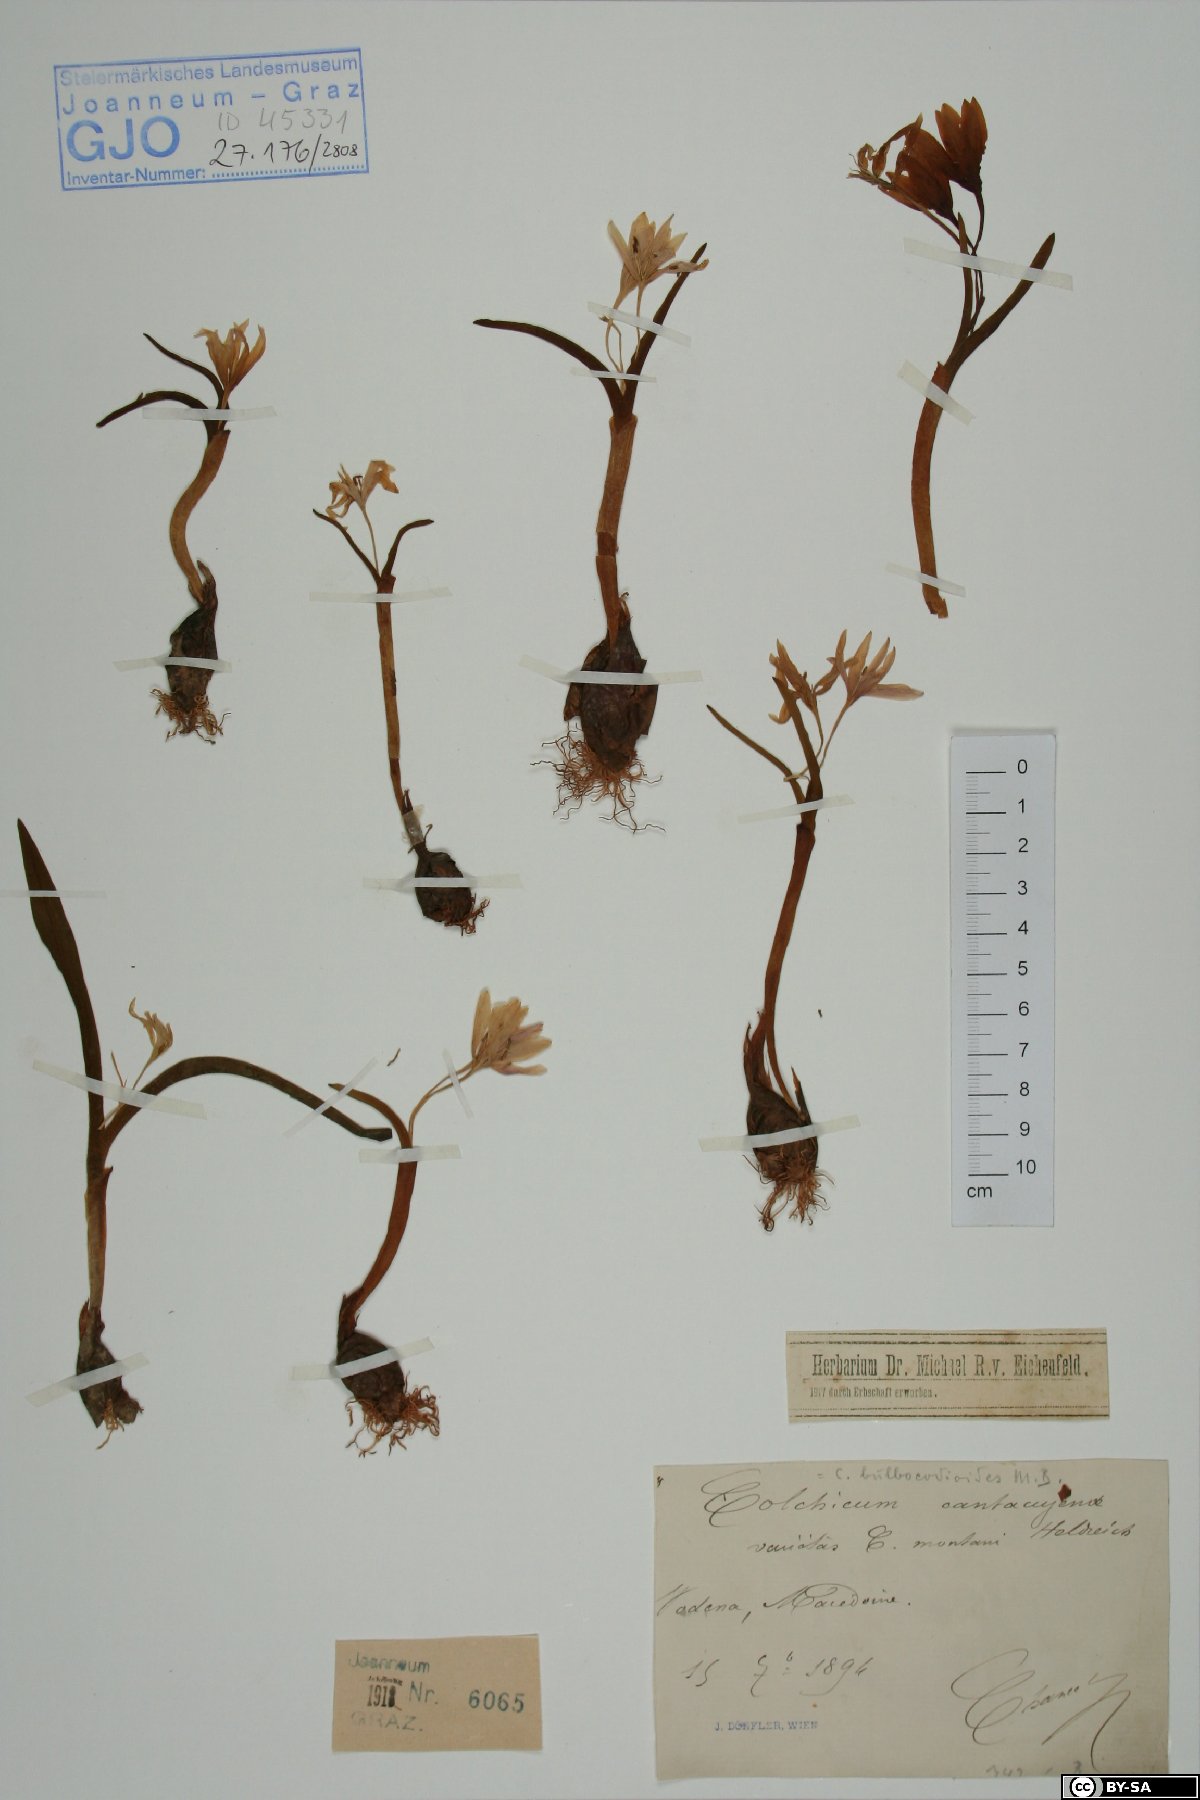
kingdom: Plantae
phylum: Tracheophyta
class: Liliopsida
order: Liliales
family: Colchicaceae
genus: Colchicum
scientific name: Colchicum cantacujense
